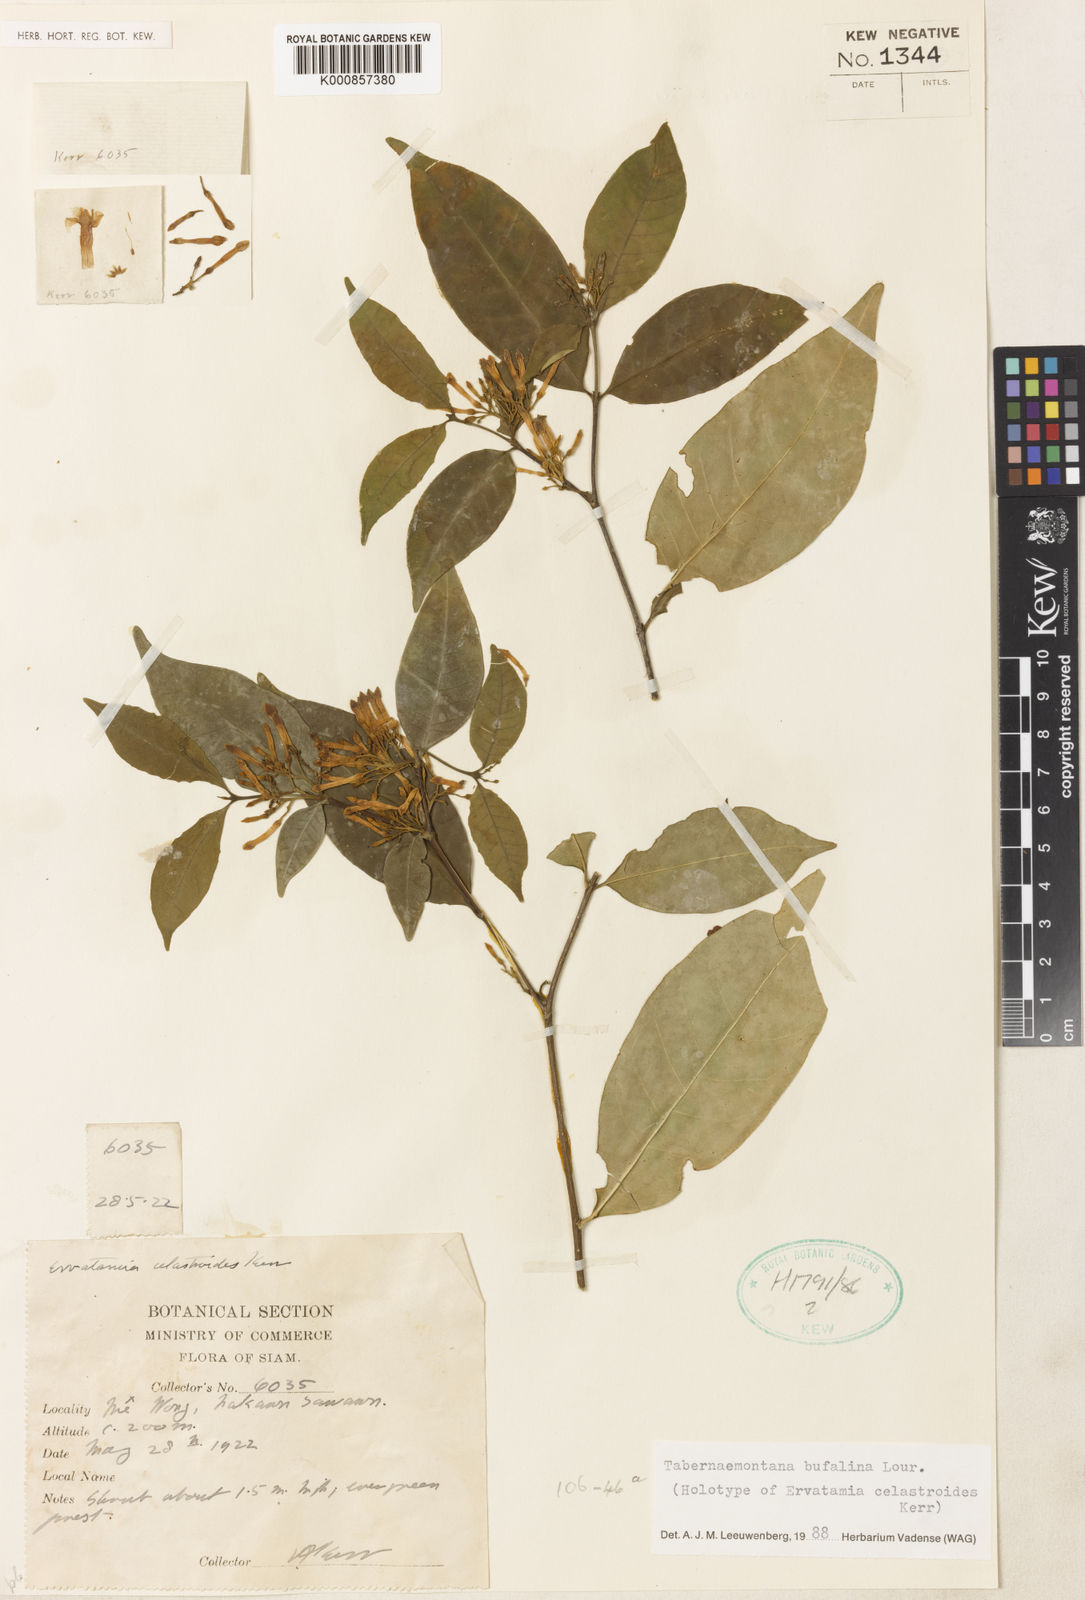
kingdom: Plantae
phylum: Tracheophyta
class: Magnoliopsida
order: Gentianales
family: Apocynaceae
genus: Tabernaemontana
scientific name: Tabernaemontana bufalina
